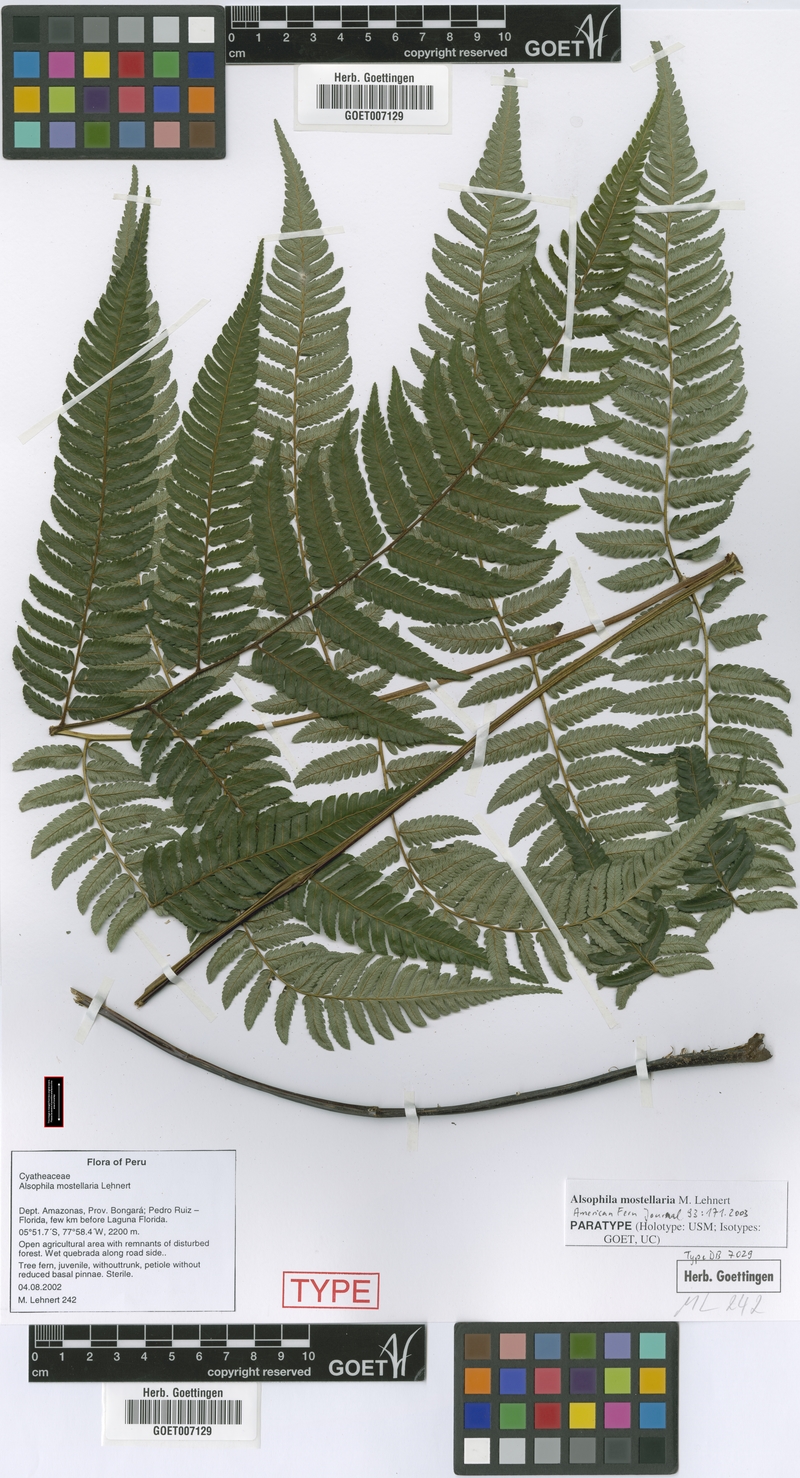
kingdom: Plantae
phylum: Tracheophyta
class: Polypodiopsida
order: Cyatheales
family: Cyatheaceae
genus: Alsophila
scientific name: Alsophila mostellaria
